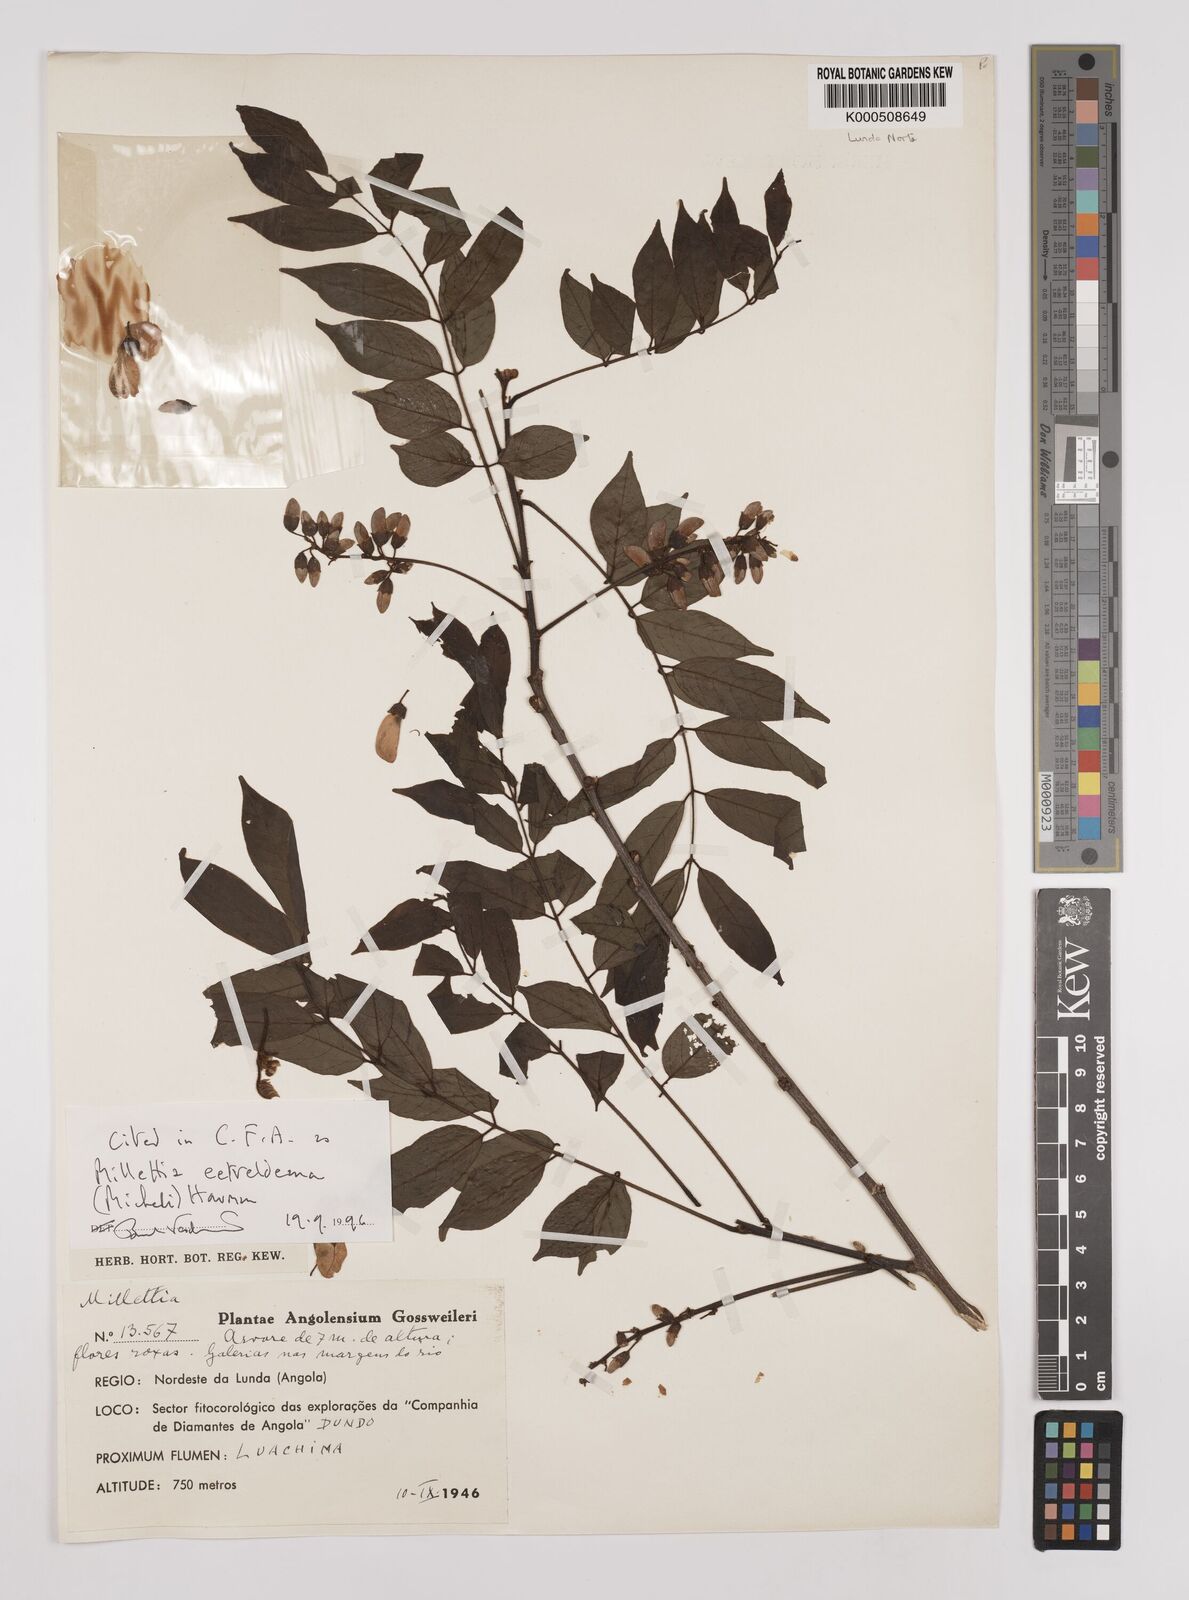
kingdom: Plantae
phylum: Tracheophyta
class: Magnoliopsida
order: Fabales
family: Fabaceae
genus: Millettia
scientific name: Millettia eetveldeana
